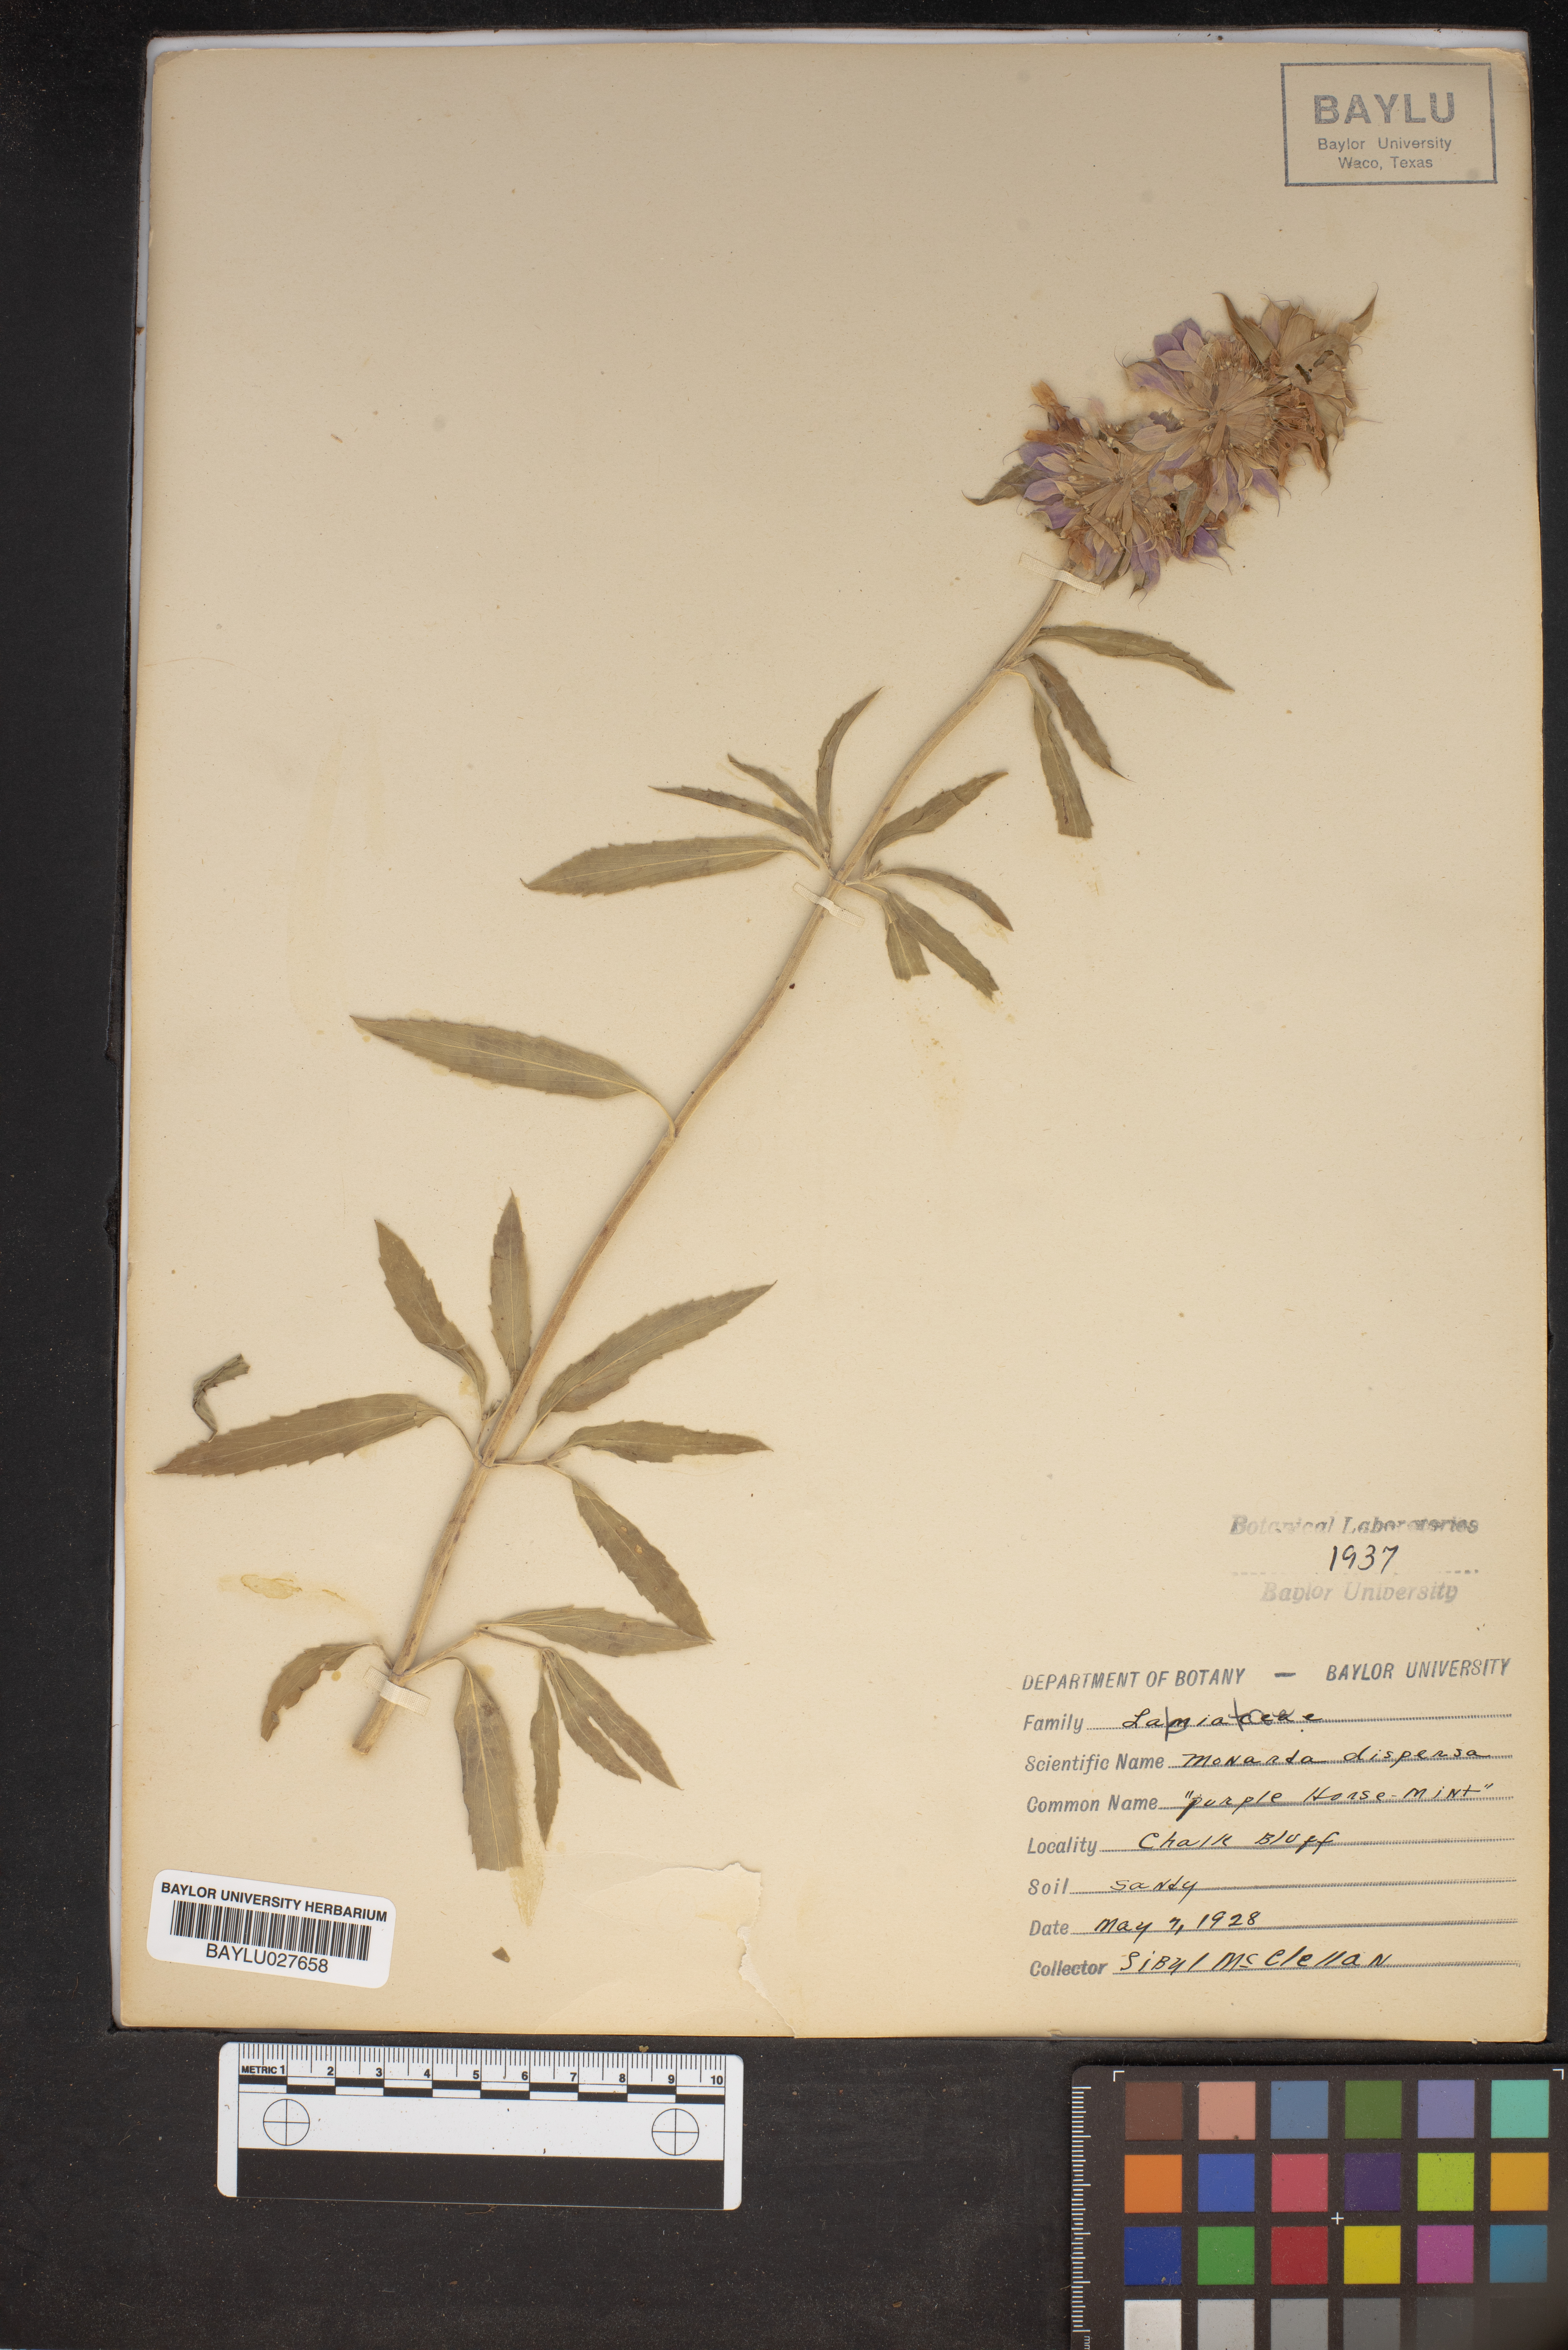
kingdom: Plantae
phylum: Tracheophyta
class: Magnoliopsida
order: Lamiales
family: Lamiaceae
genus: Monarda
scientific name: Monarda citriodora
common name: Lemon beebalm
